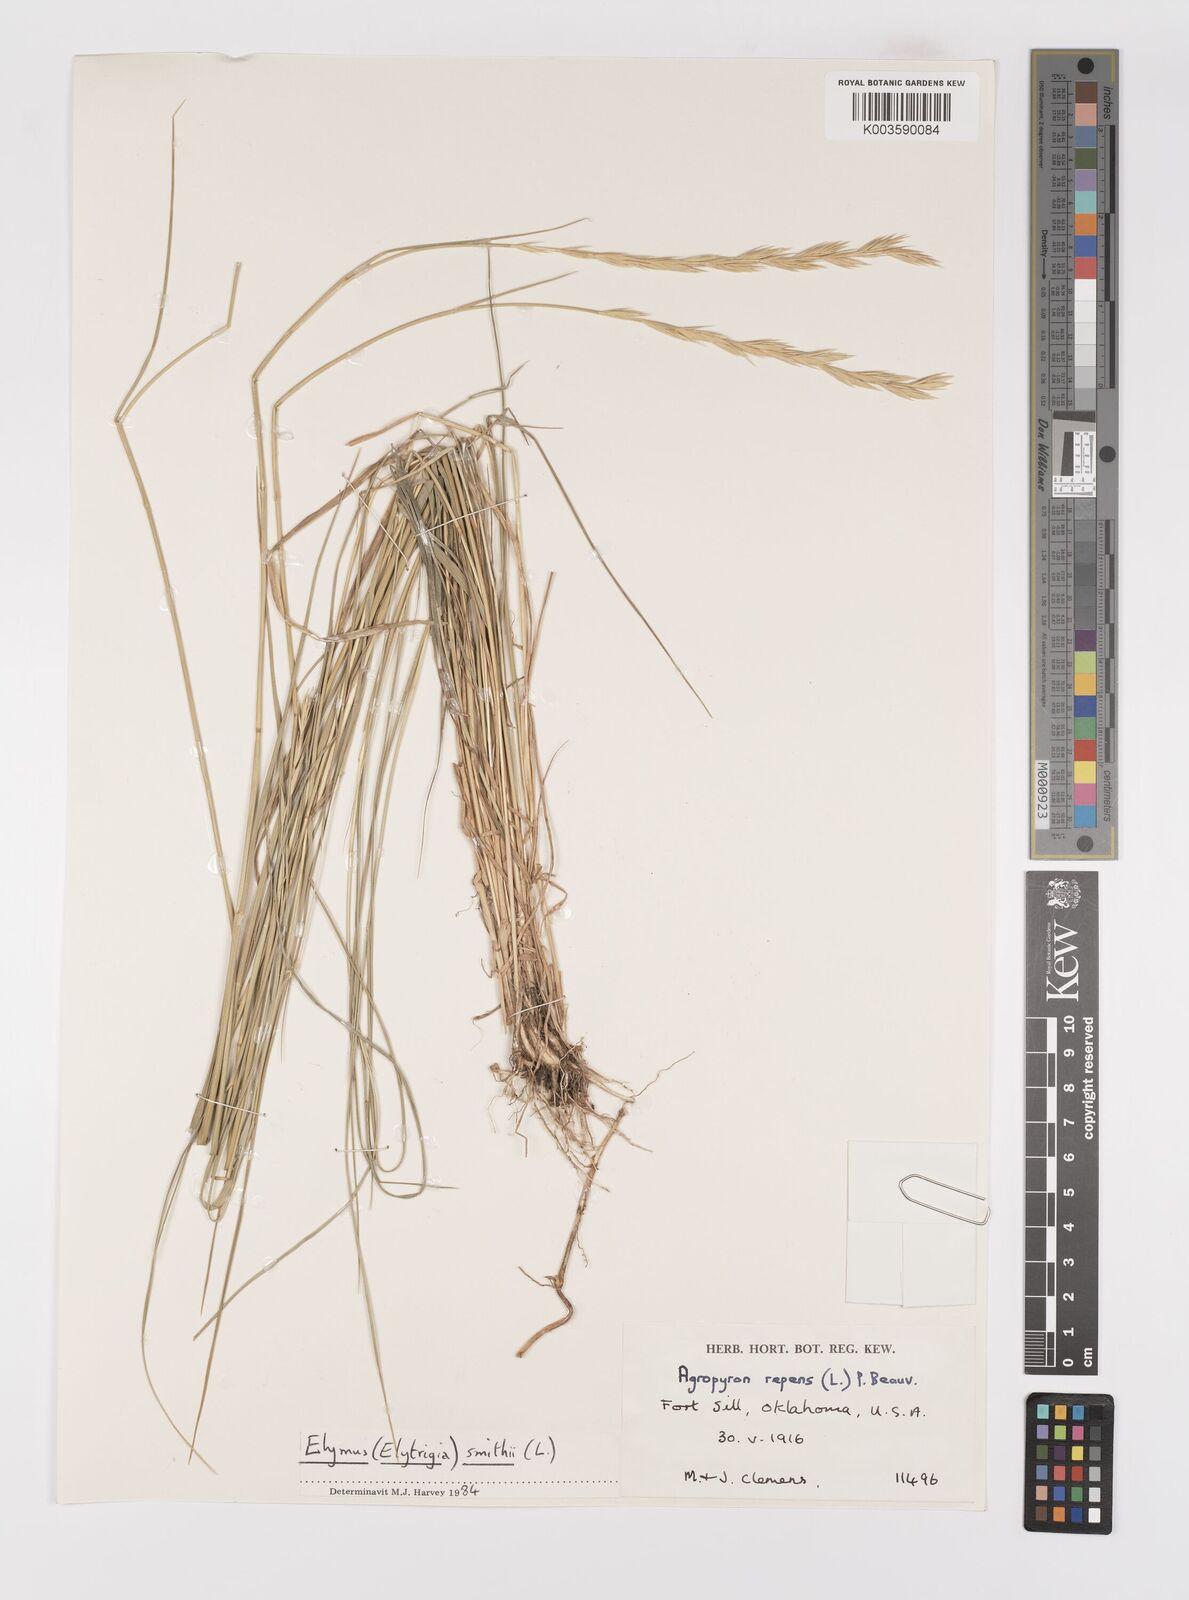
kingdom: Plantae
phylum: Tracheophyta
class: Liliopsida
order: Poales
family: Poaceae
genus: Elymus
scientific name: Elymus repens
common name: Quackgrass
